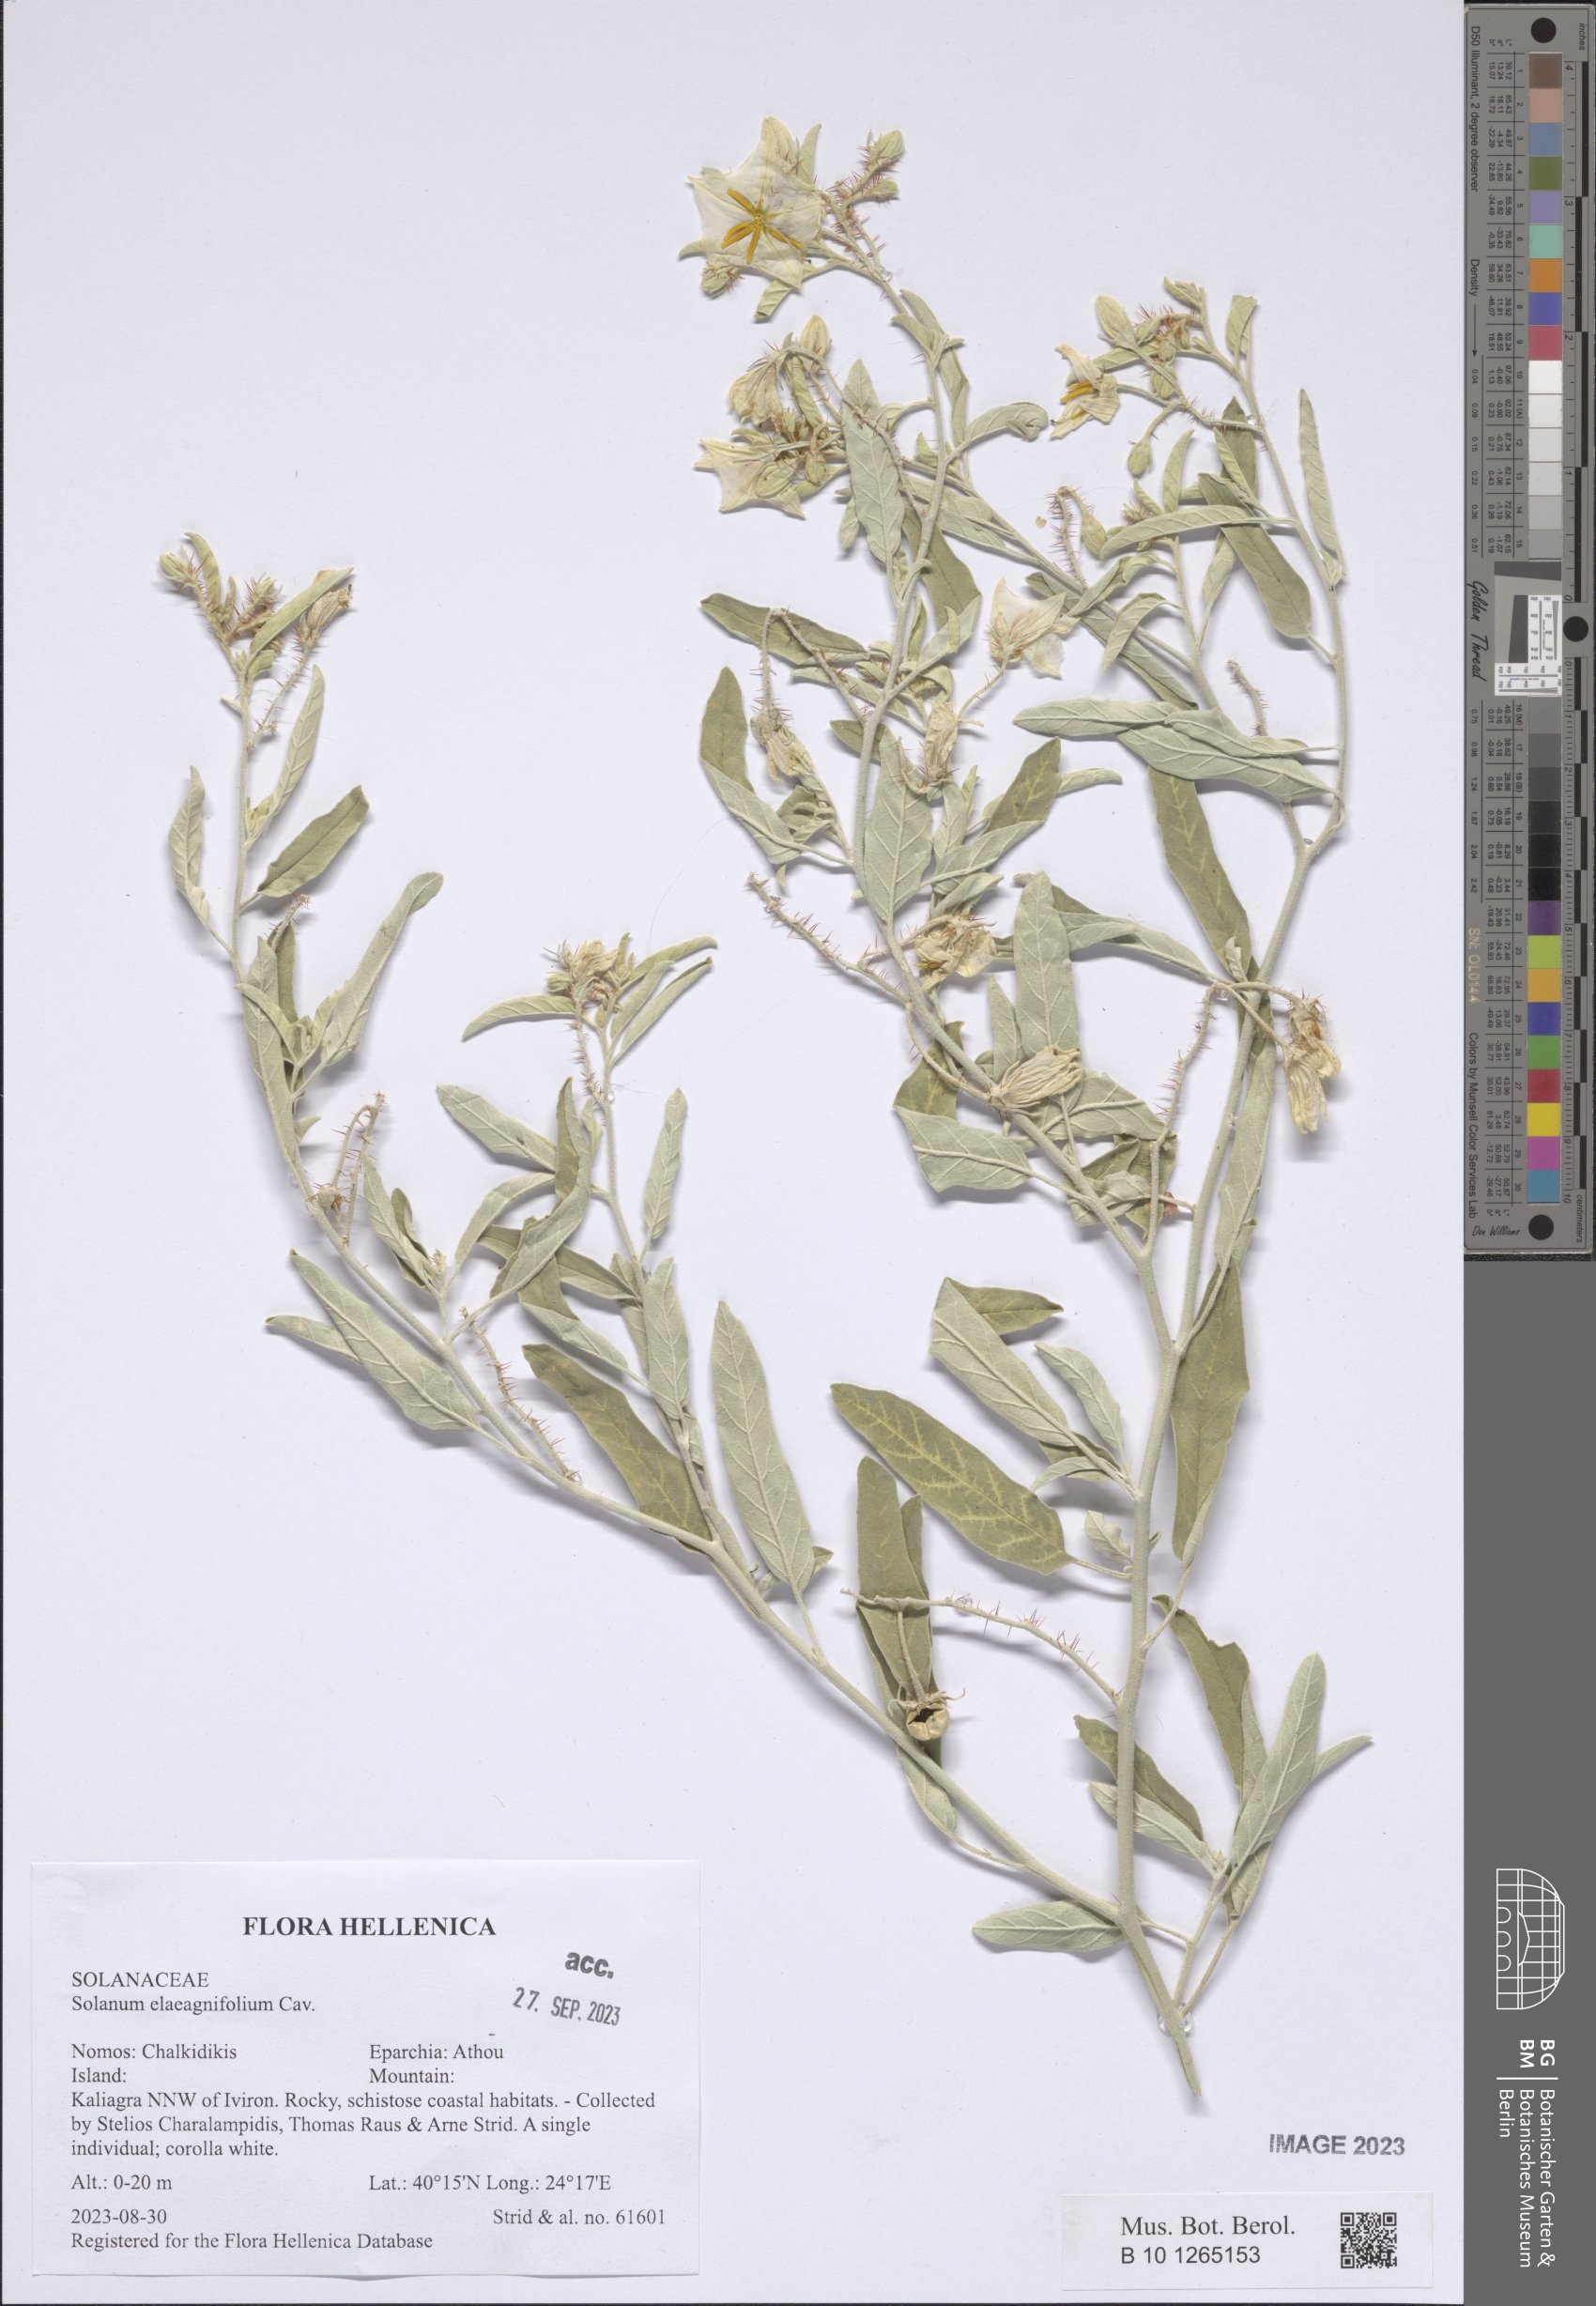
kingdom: Plantae
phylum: Tracheophyta
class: Magnoliopsida
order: Solanales
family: Solanaceae
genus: Solanum
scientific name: Solanum elaeagnifolium
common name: Silverleaf nightshade
